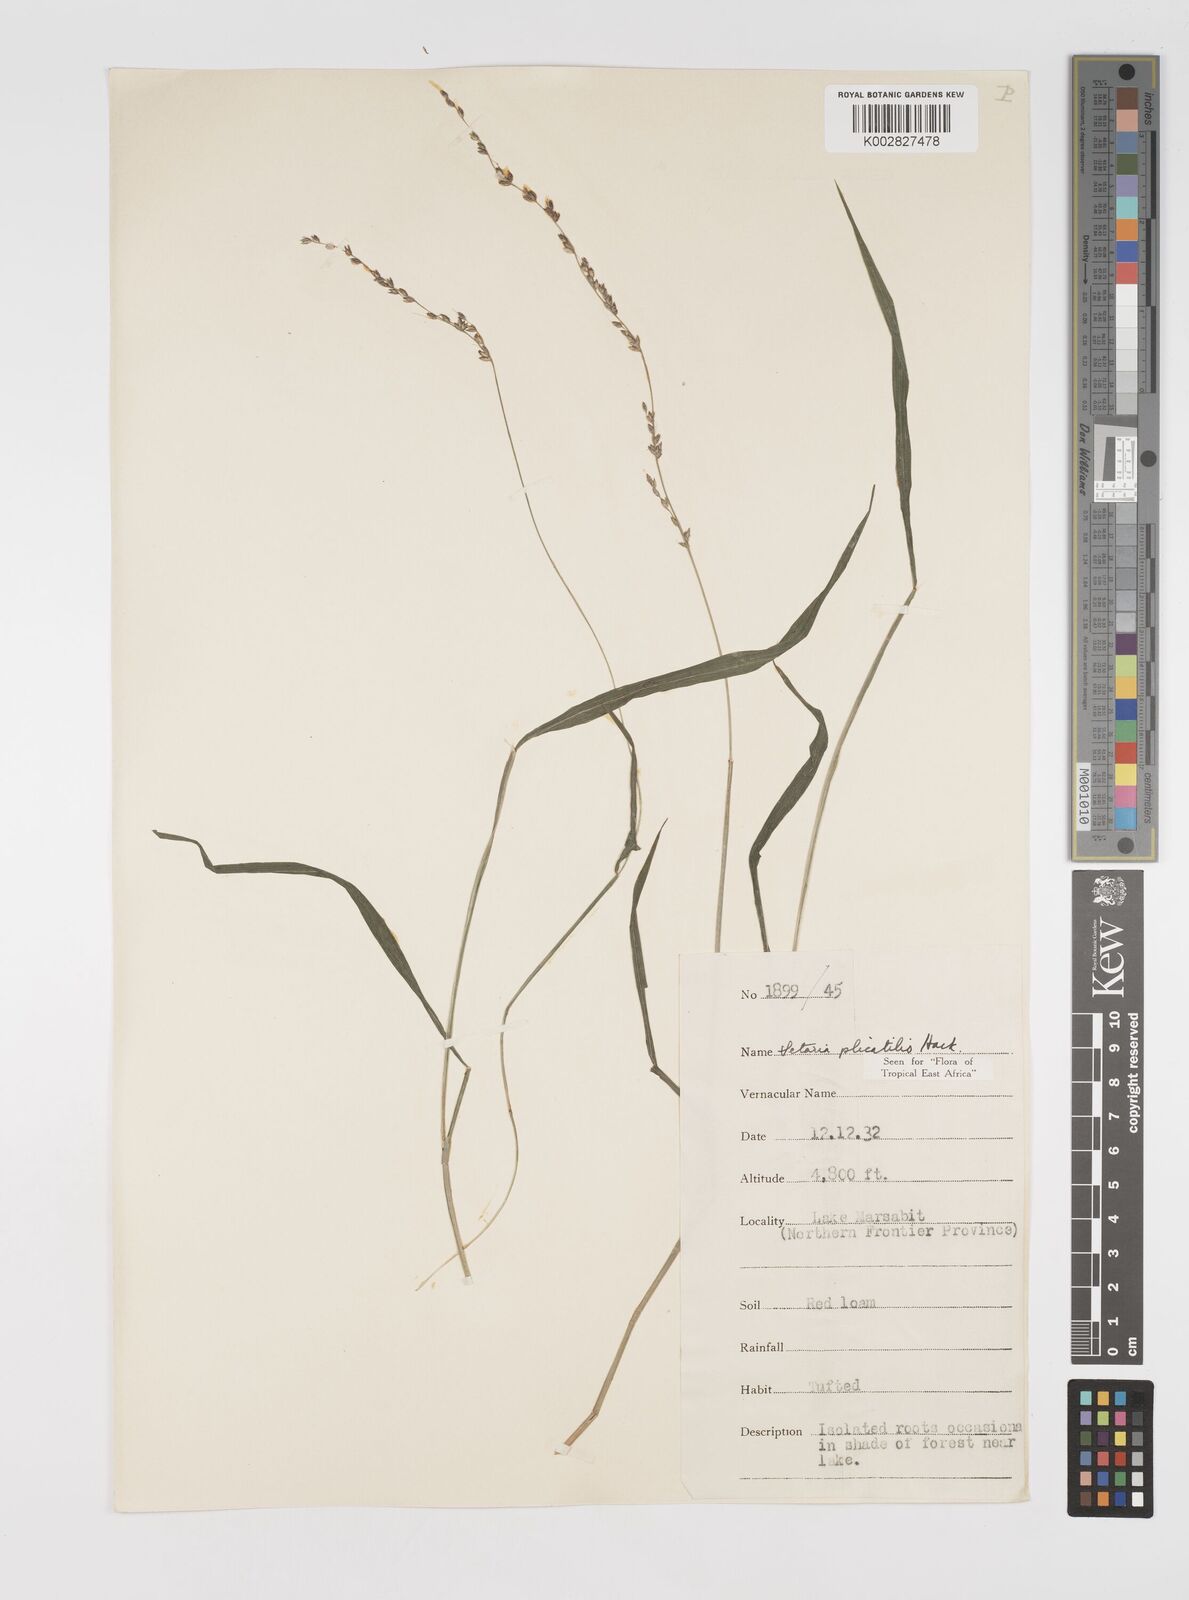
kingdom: Plantae
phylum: Tracheophyta
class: Liliopsida
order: Poales
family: Poaceae
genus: Setaria
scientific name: Setaria megaphylla
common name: Bigleaf bristlegrass
